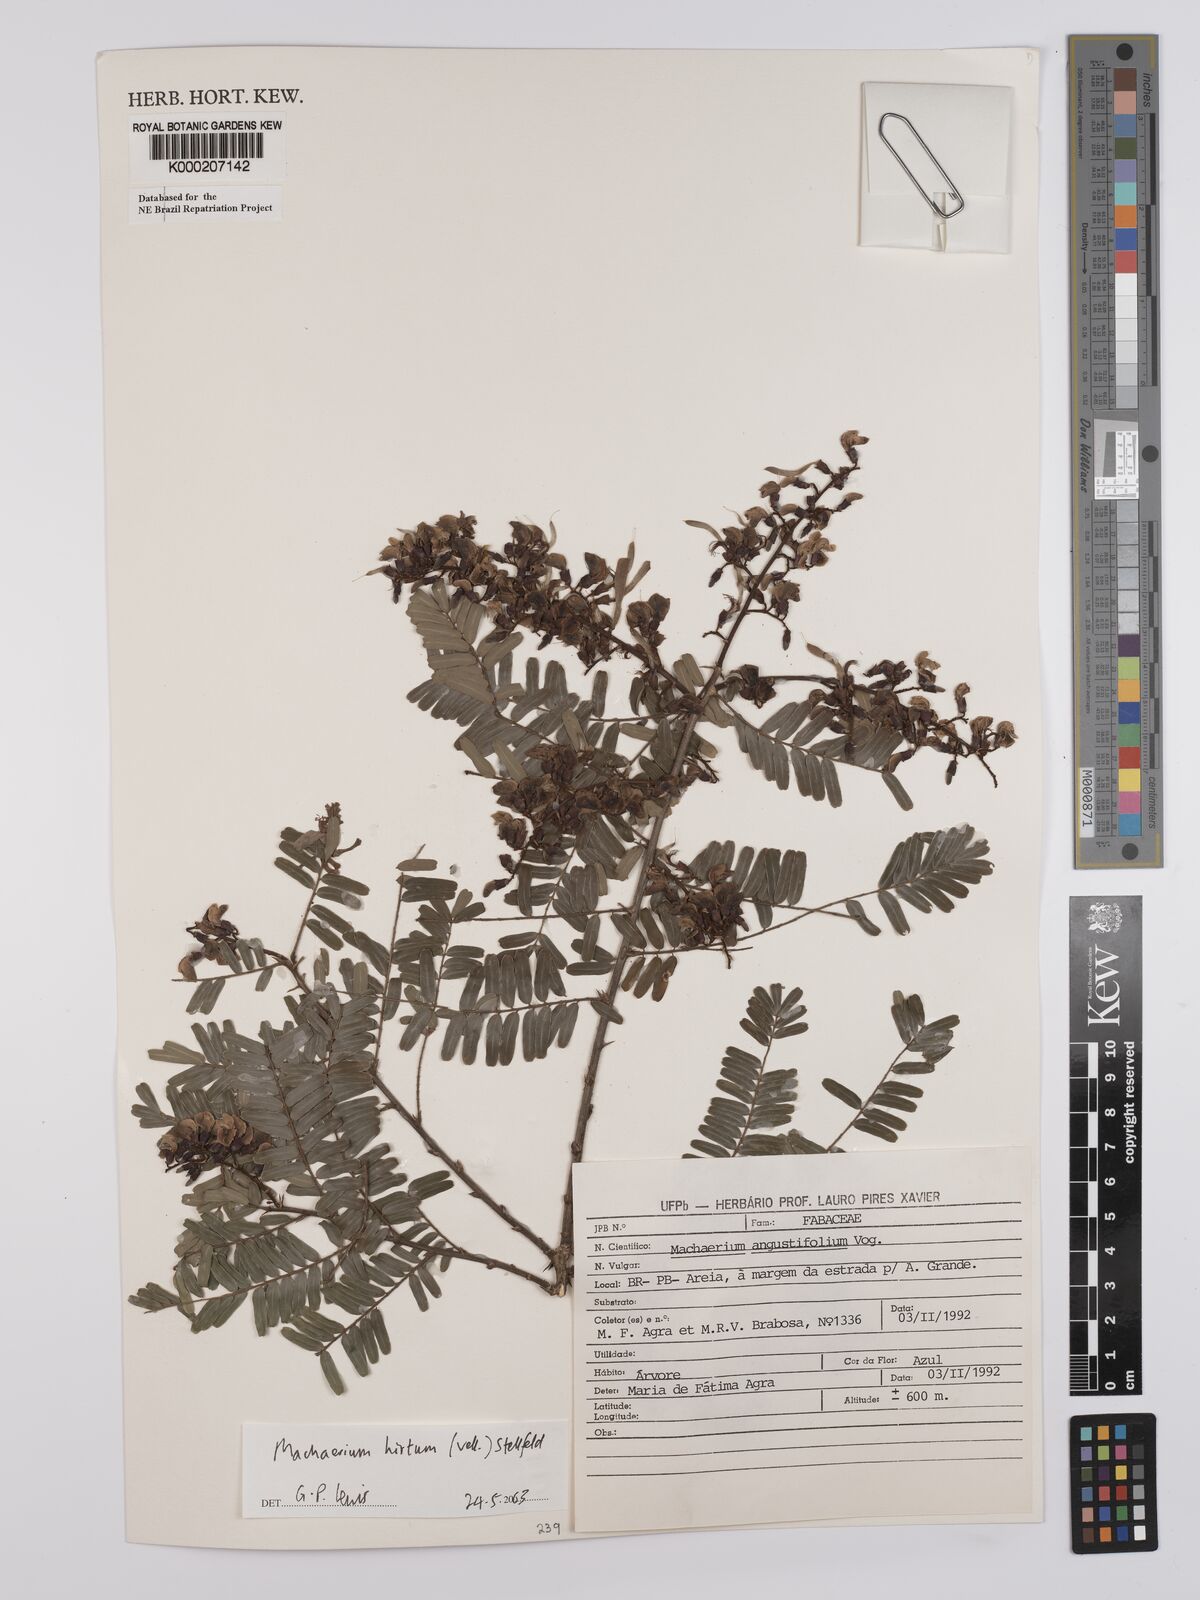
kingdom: Plantae
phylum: Tracheophyta
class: Magnoliopsida
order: Fabales
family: Fabaceae
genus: Machaerium
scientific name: Machaerium hirtum
